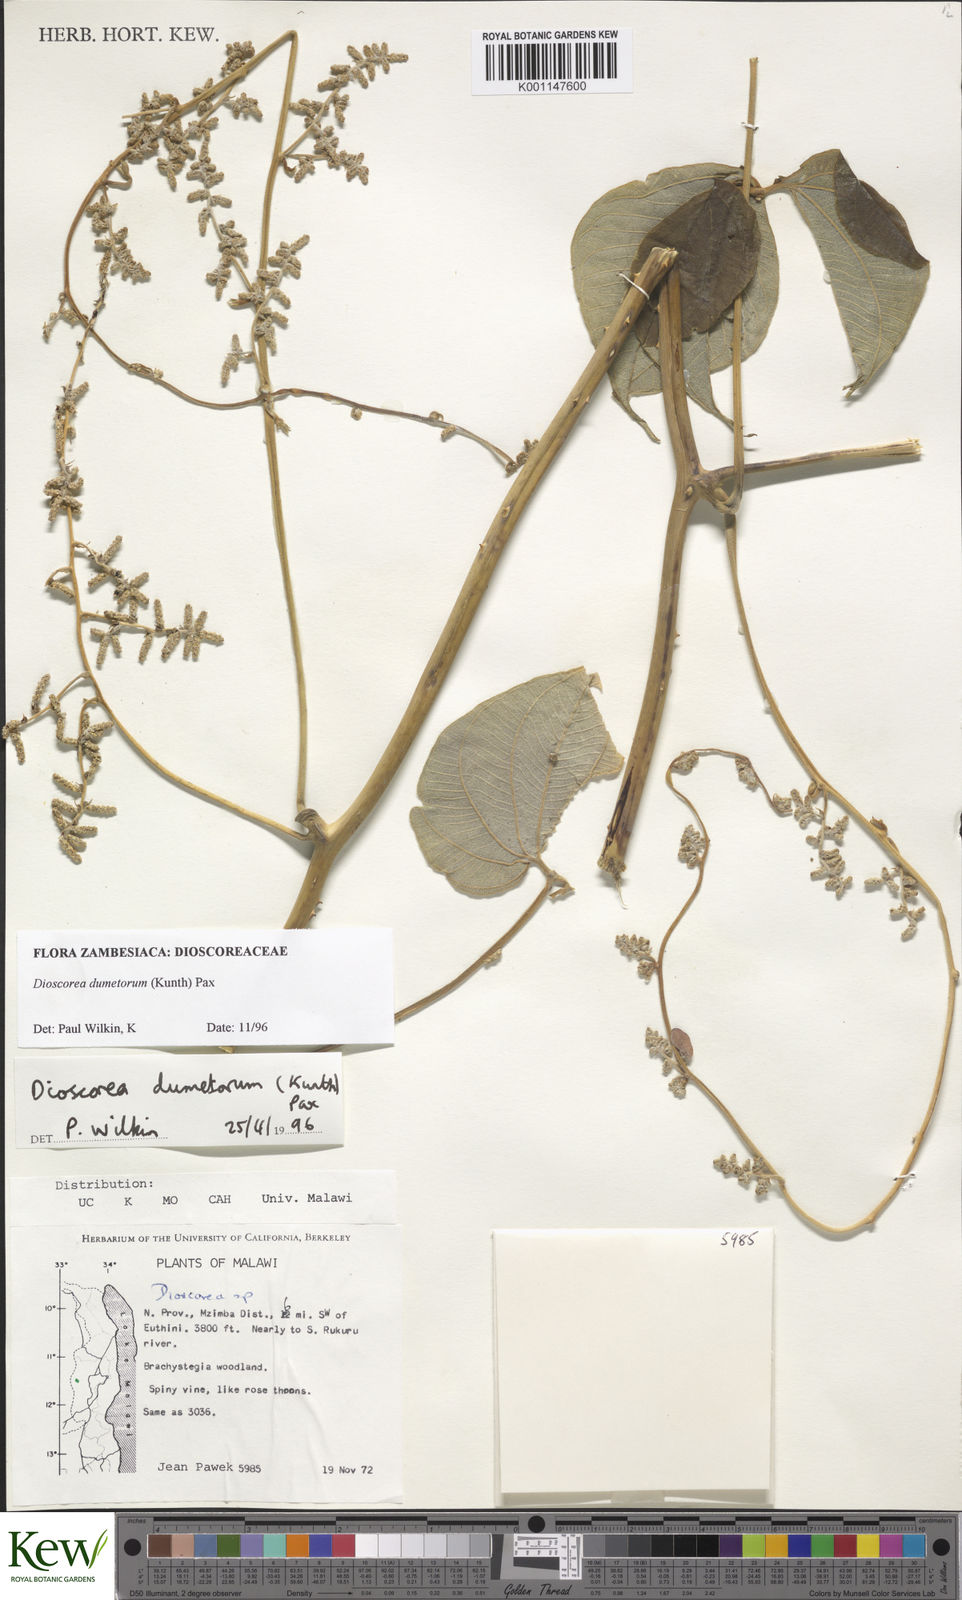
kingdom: Plantae
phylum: Tracheophyta
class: Liliopsida
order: Dioscoreales
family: Dioscoreaceae
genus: Dioscorea
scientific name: Dioscorea dumetorum
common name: African bitter yam
